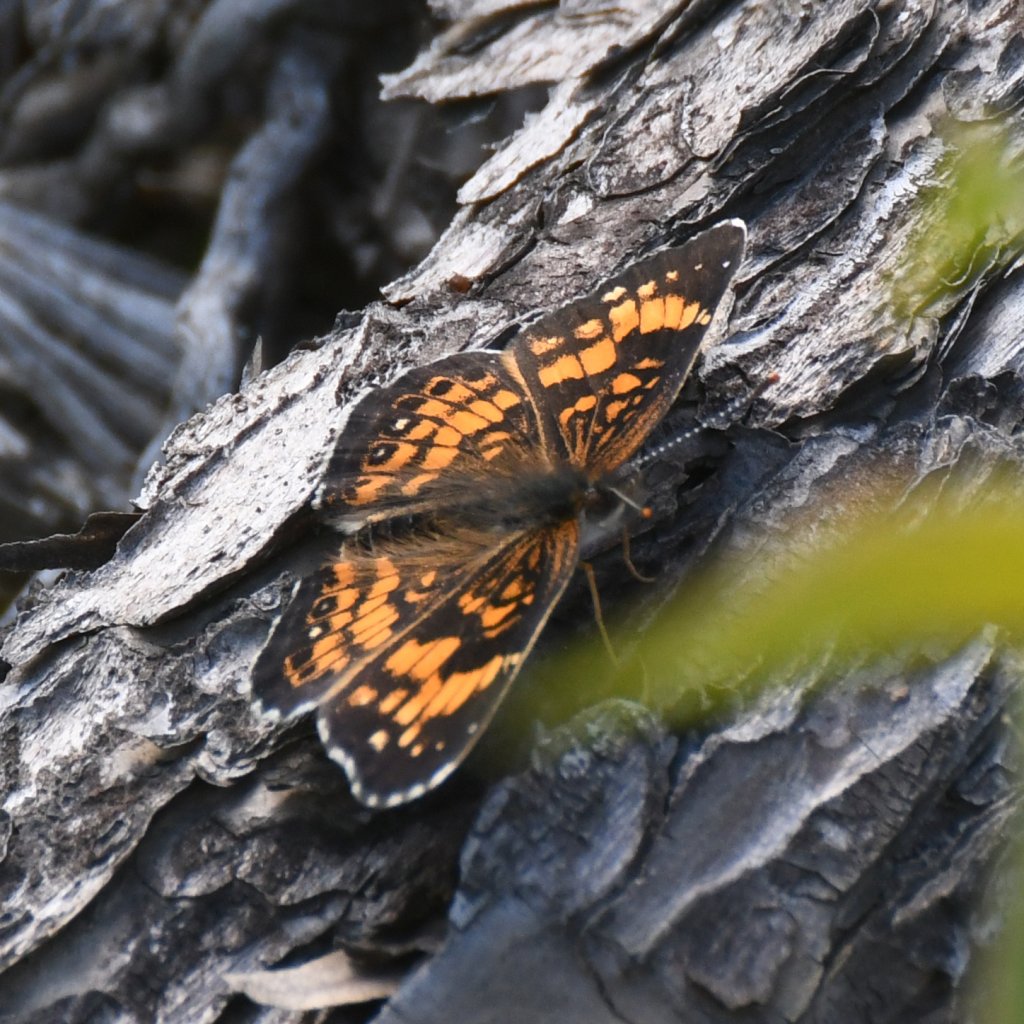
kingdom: Animalia
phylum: Arthropoda
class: Insecta
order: Lepidoptera
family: Nymphalidae
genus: Chlosyne
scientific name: Chlosyne nycteis
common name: Silvery Checkerspot
